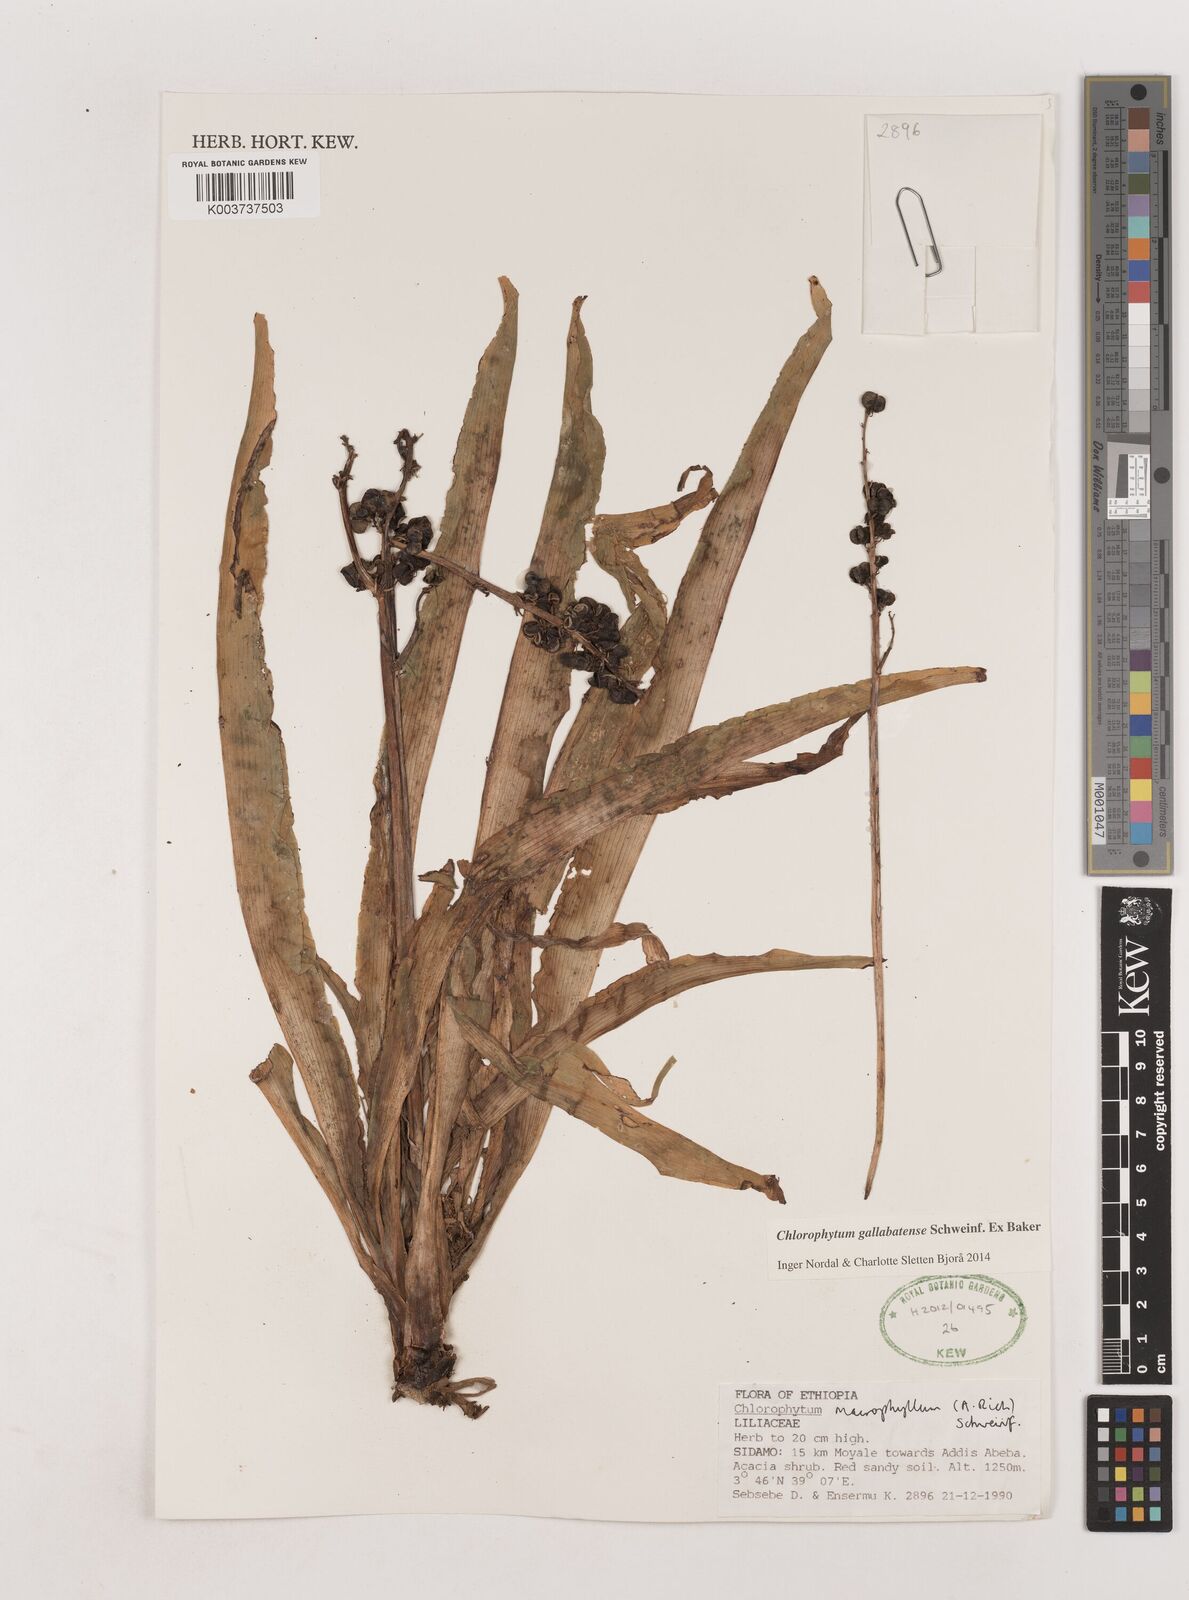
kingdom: Plantae
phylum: Tracheophyta
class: Liliopsida
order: Asparagales
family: Asparagaceae
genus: Chlorophytum
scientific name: Chlorophytum macrophyllum
